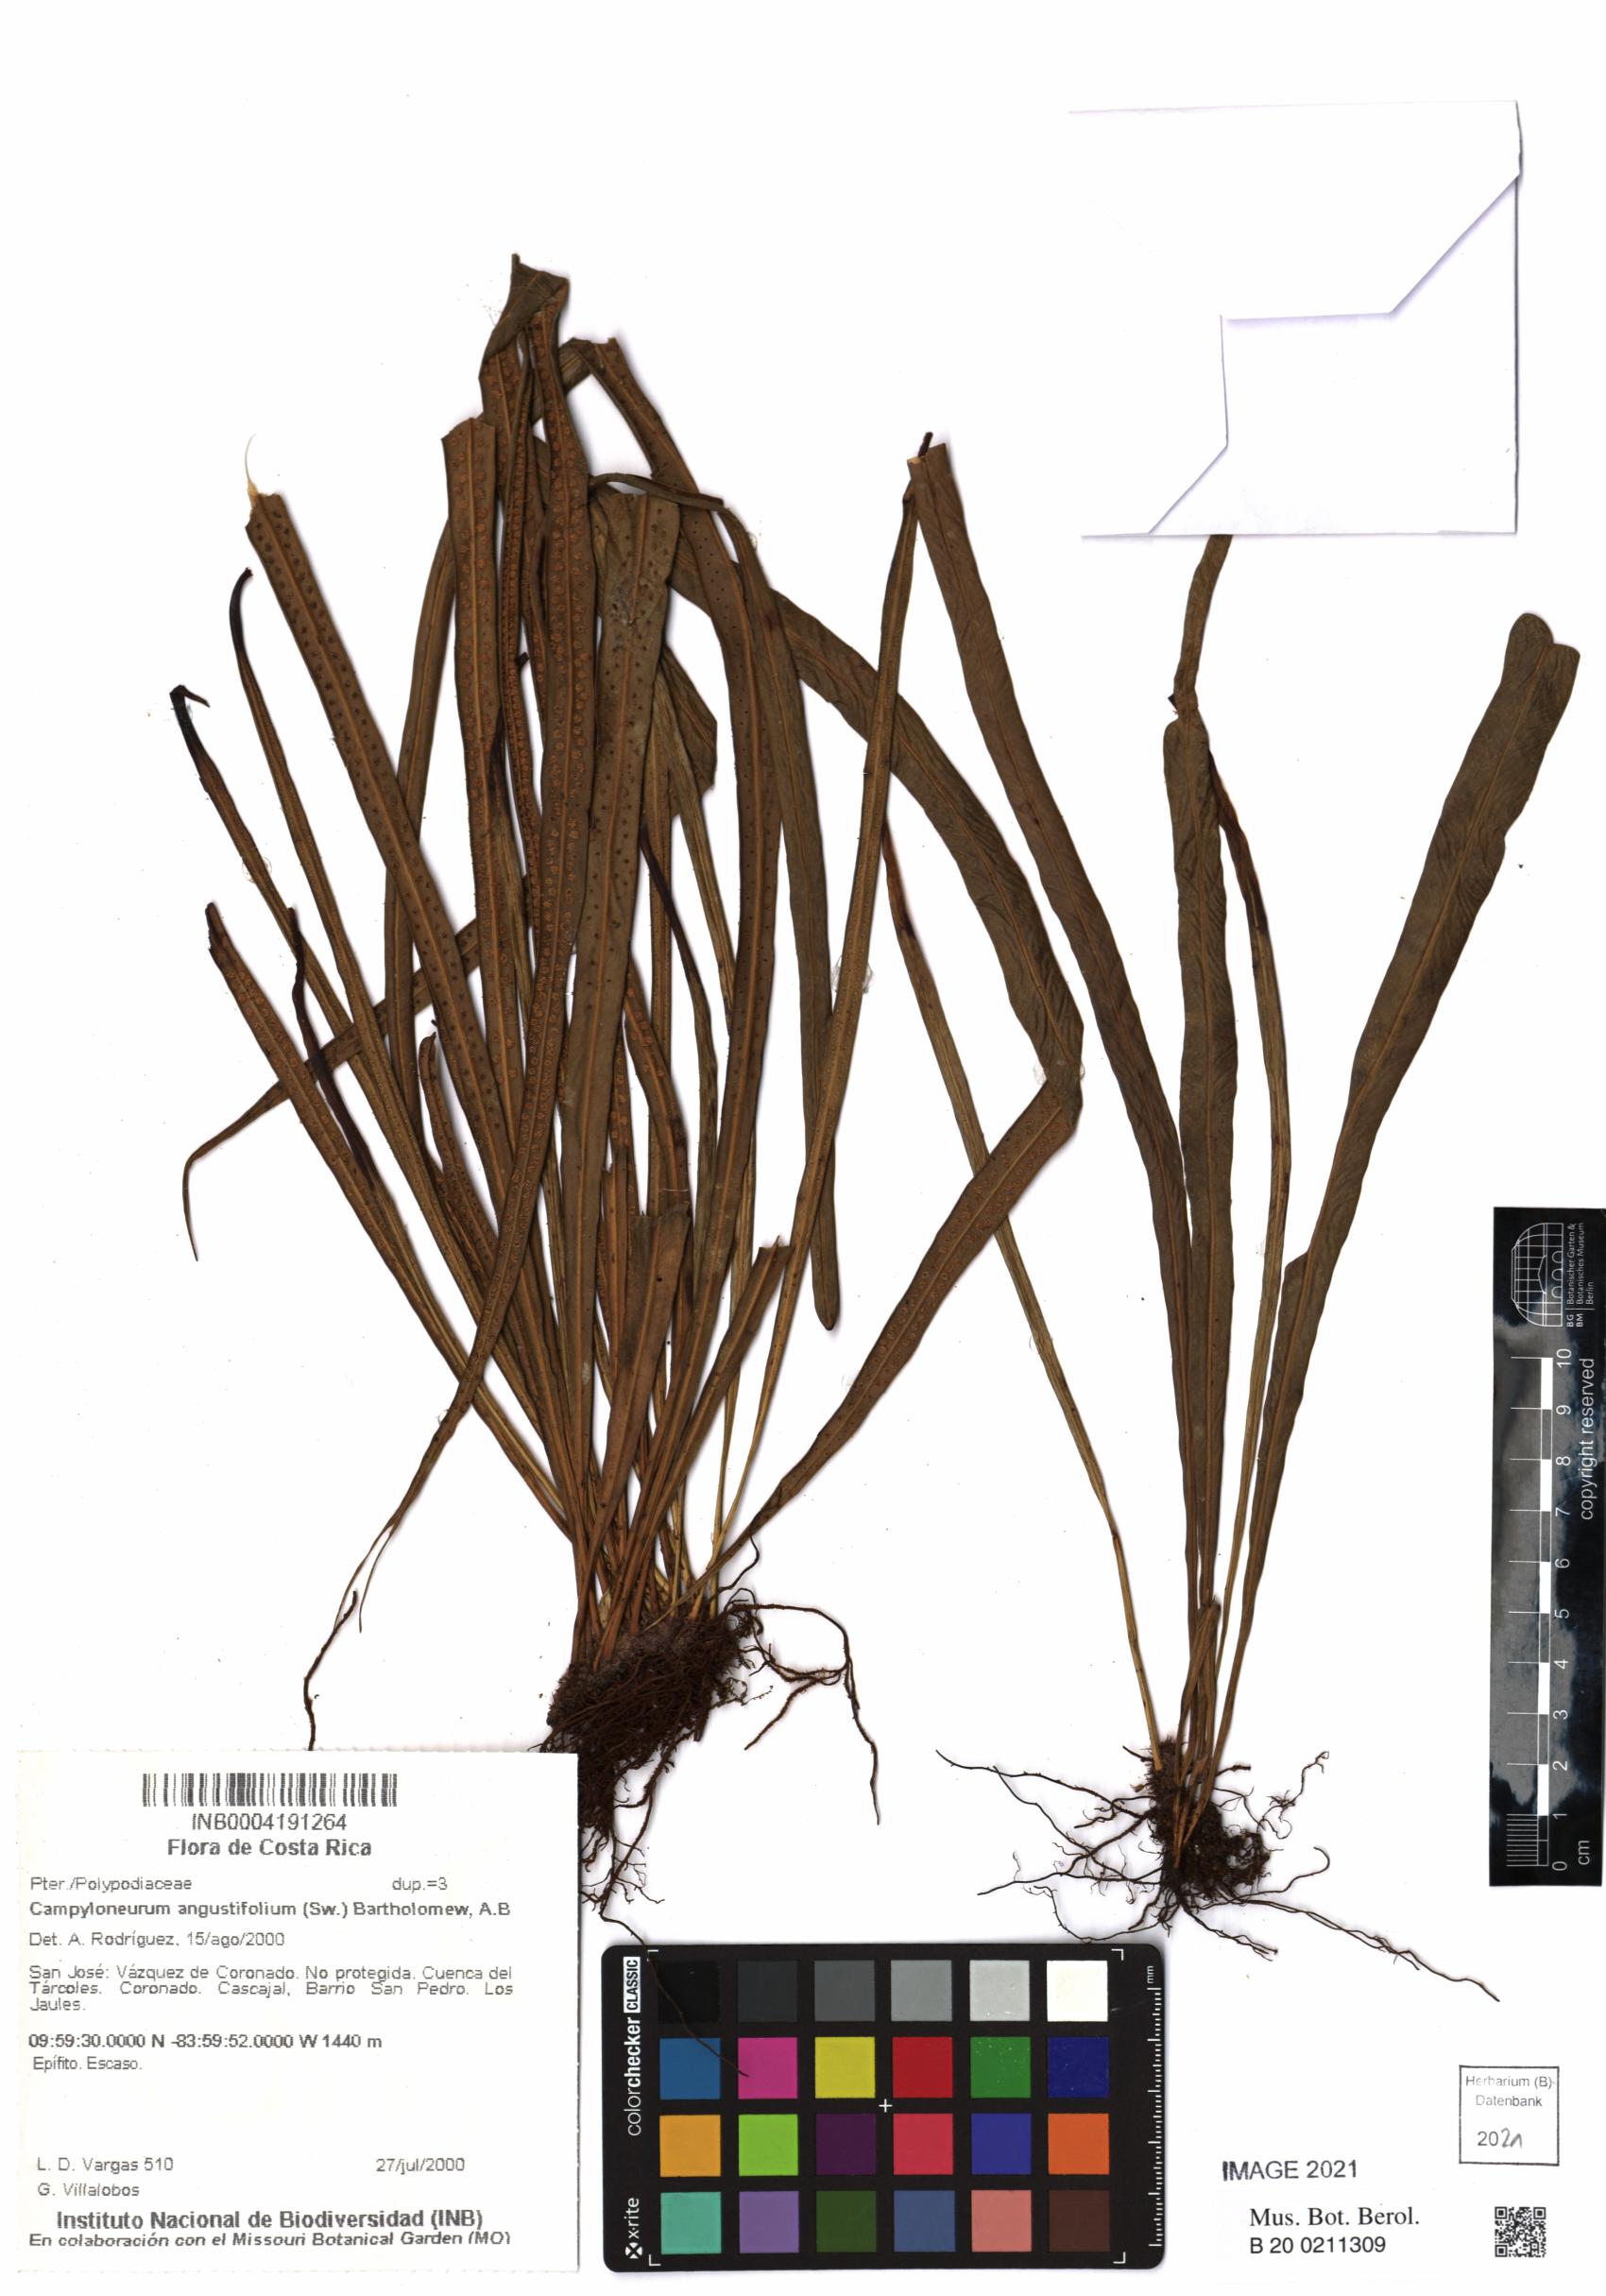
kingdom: Plantae
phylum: Tracheophyta
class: Polypodiopsida
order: Polypodiales
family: Polypodiaceae
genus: Campyloneurum
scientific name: Campyloneurum angustifolium
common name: Narrow-leaf strap fern
